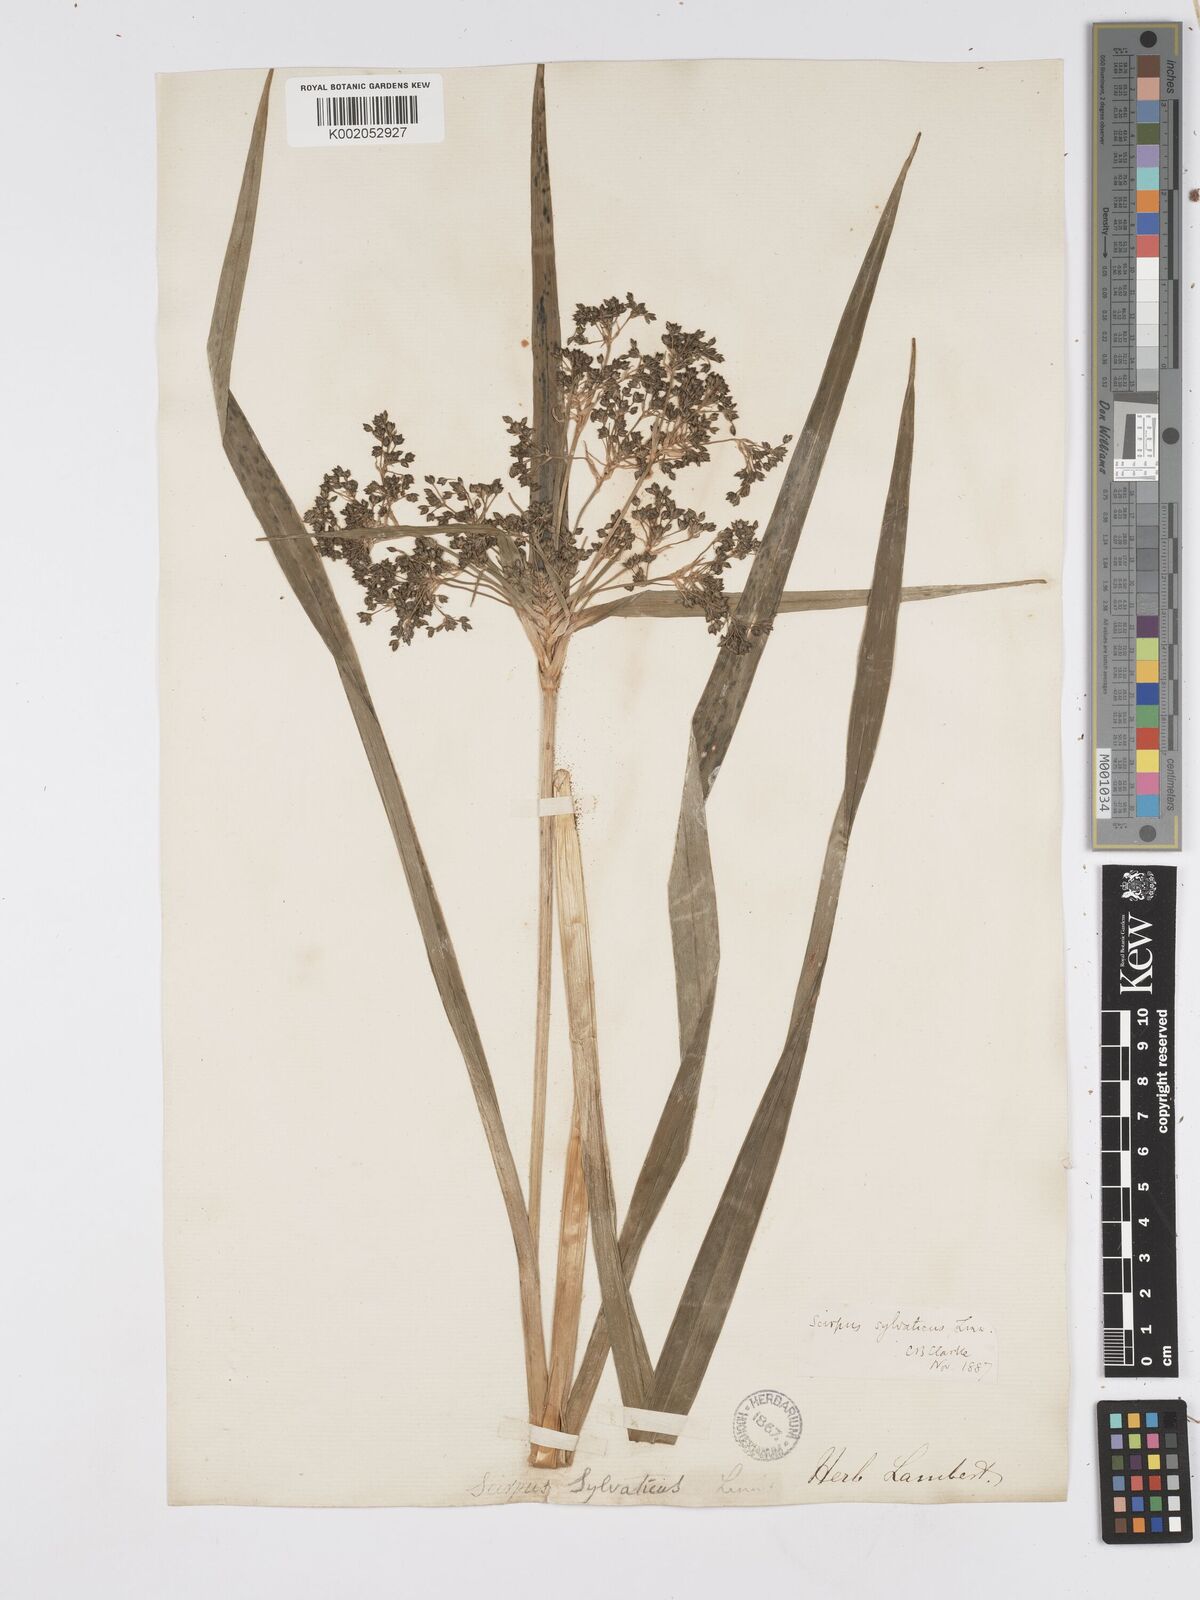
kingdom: Plantae
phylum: Tracheophyta
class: Liliopsida
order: Poales
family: Cyperaceae
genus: Scirpus
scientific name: Scirpus sylvaticus
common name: Wood club-rush
